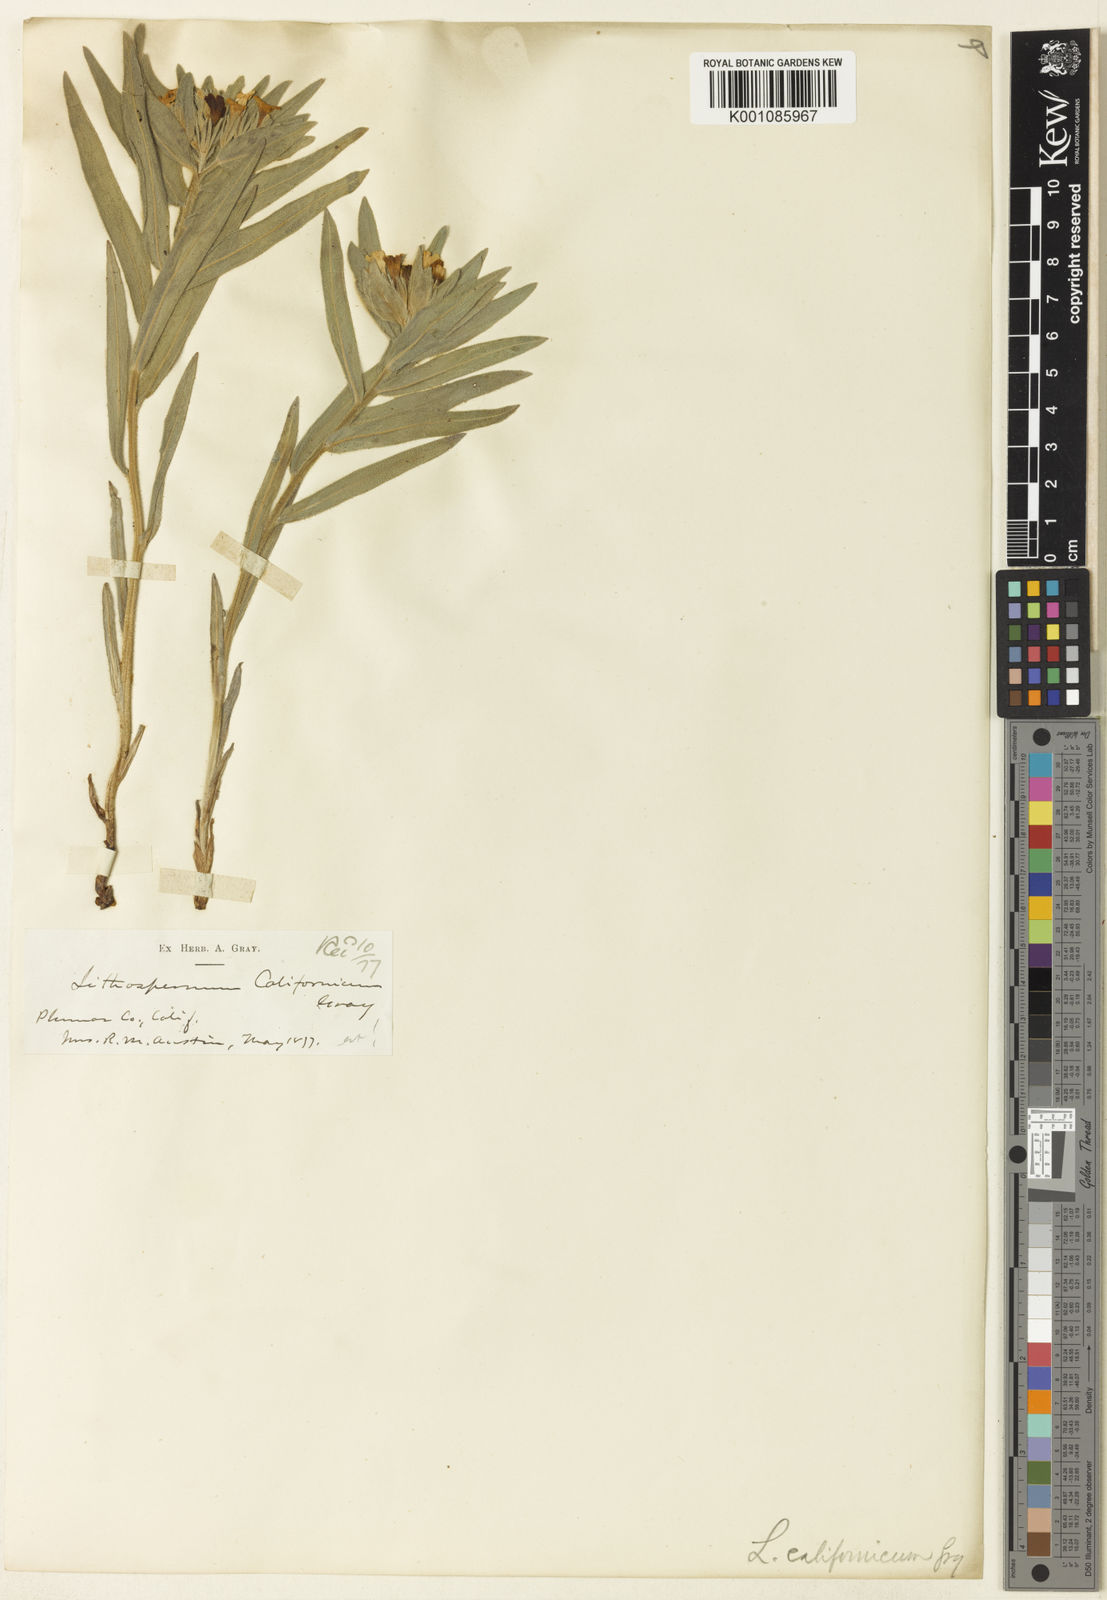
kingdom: Plantae
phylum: Tracheophyta
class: Magnoliopsida
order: Boraginales
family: Boraginaceae
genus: Lithospermum
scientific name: Lithospermum californicum
